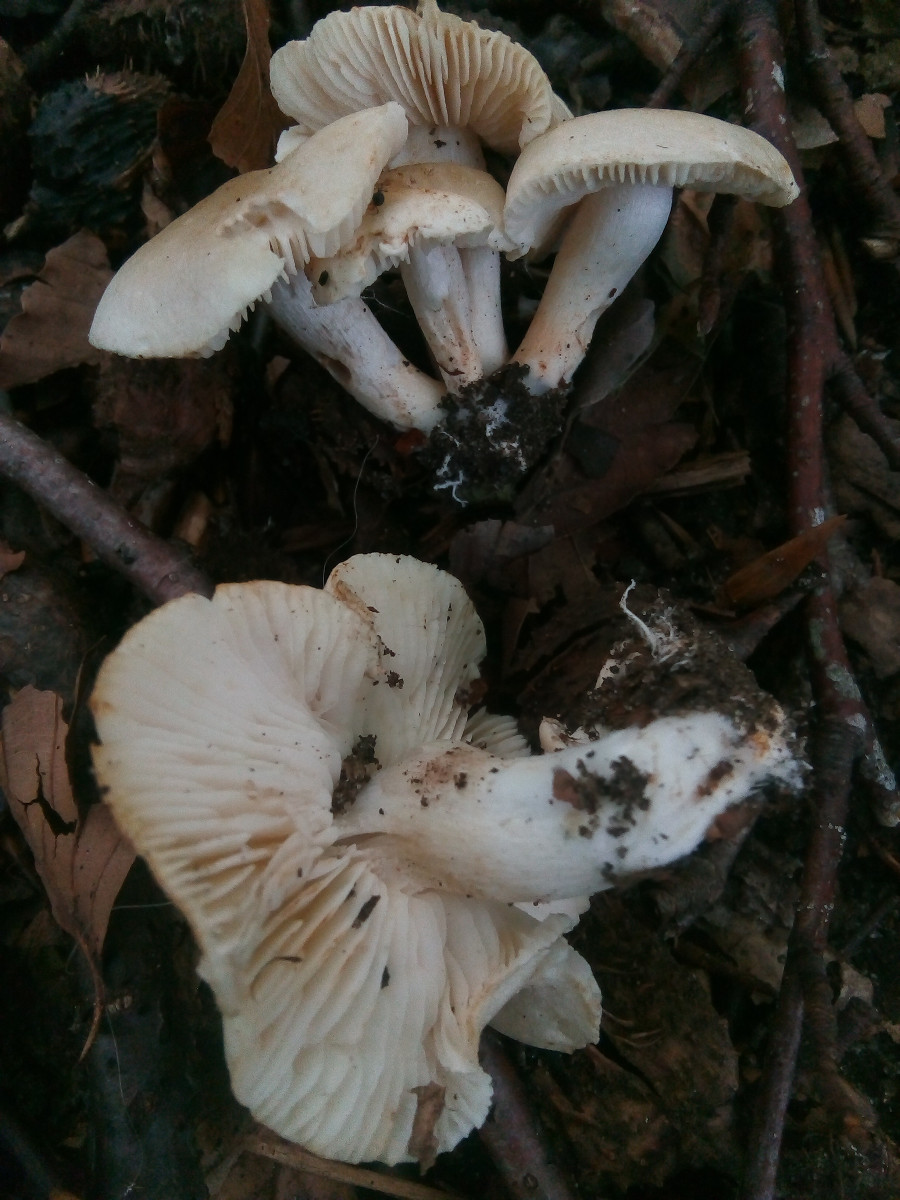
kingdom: Fungi
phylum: Basidiomycota
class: Agaricomycetes
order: Agaricales
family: Tricholomataceae
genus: Tricholoma
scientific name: Tricholoma lascivum
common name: stinkende ridderhat
